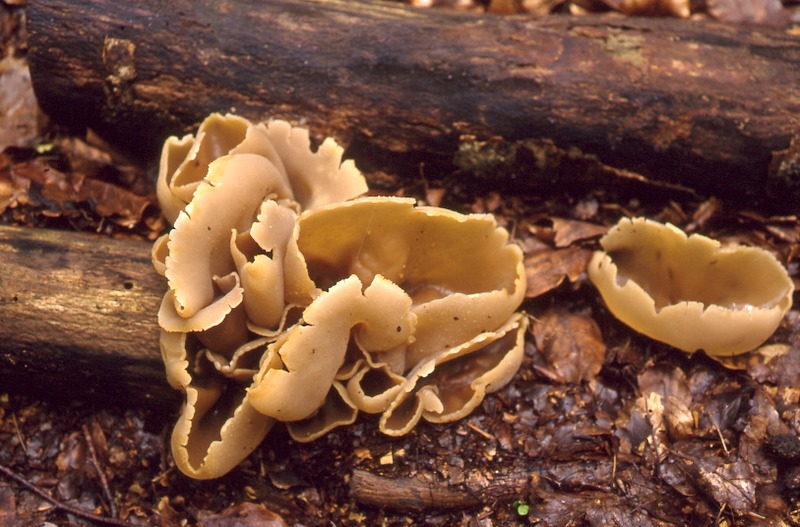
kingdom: Fungi
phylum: Ascomycota
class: Pezizomycetes
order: Pezizales
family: Morchellaceae
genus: Disciotis
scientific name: Disciotis venosa
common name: Bleach cup
